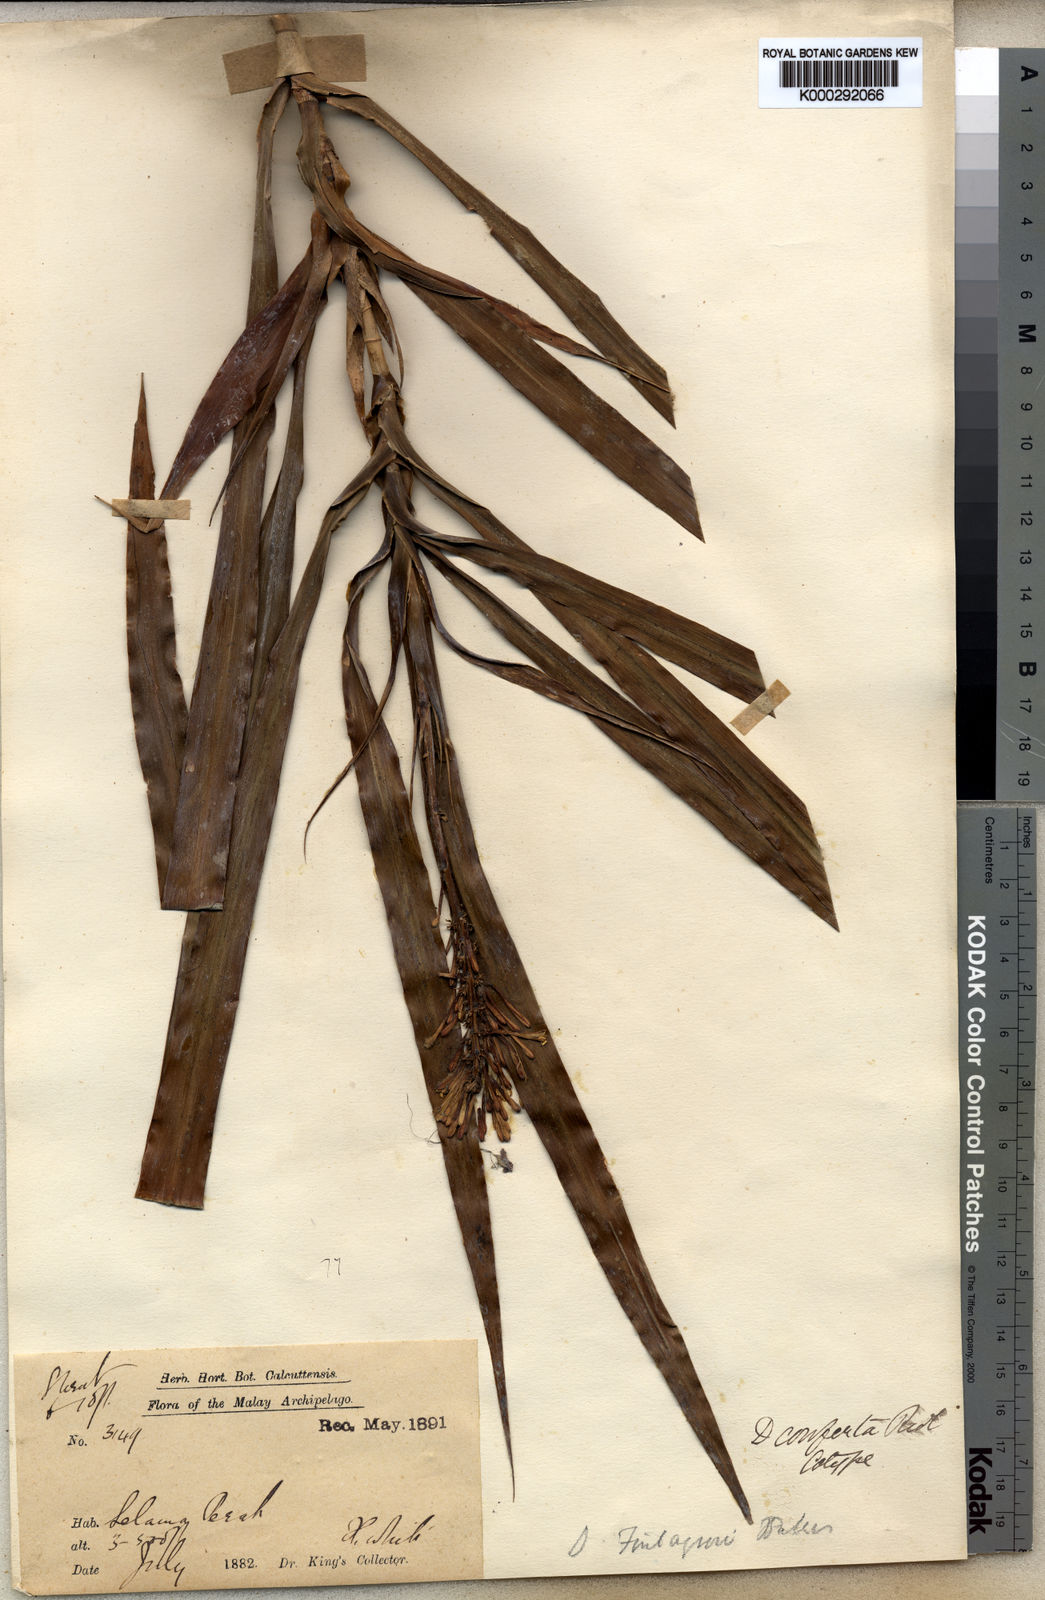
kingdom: Plantae
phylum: Tracheophyta
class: Liliopsida
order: Asparagales
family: Asparagaceae
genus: Dracaena
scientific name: Dracaena conferta
